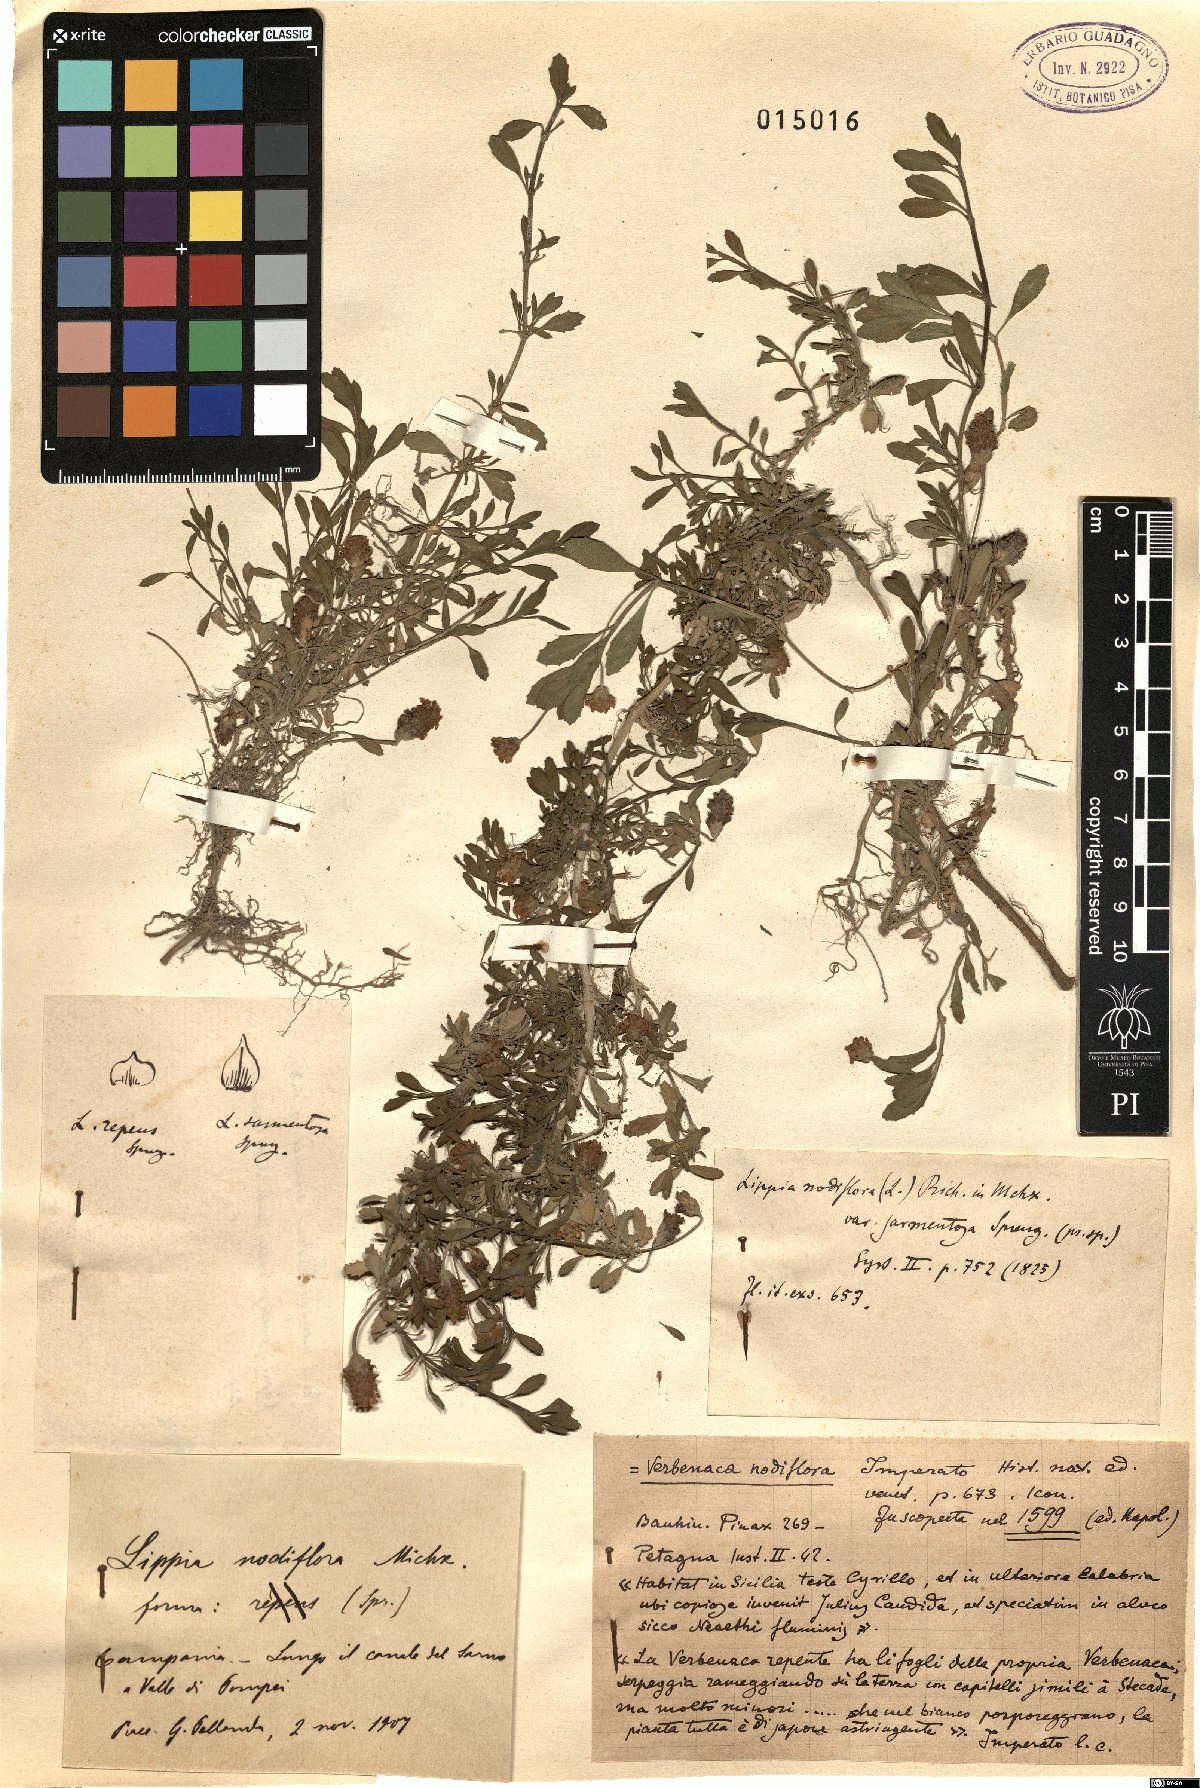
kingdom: Plantae
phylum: Tracheophyta
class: Magnoliopsida
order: Lamiales
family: Verbenaceae
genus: Phyla
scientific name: Phyla nodiflora
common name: Frogfruit
